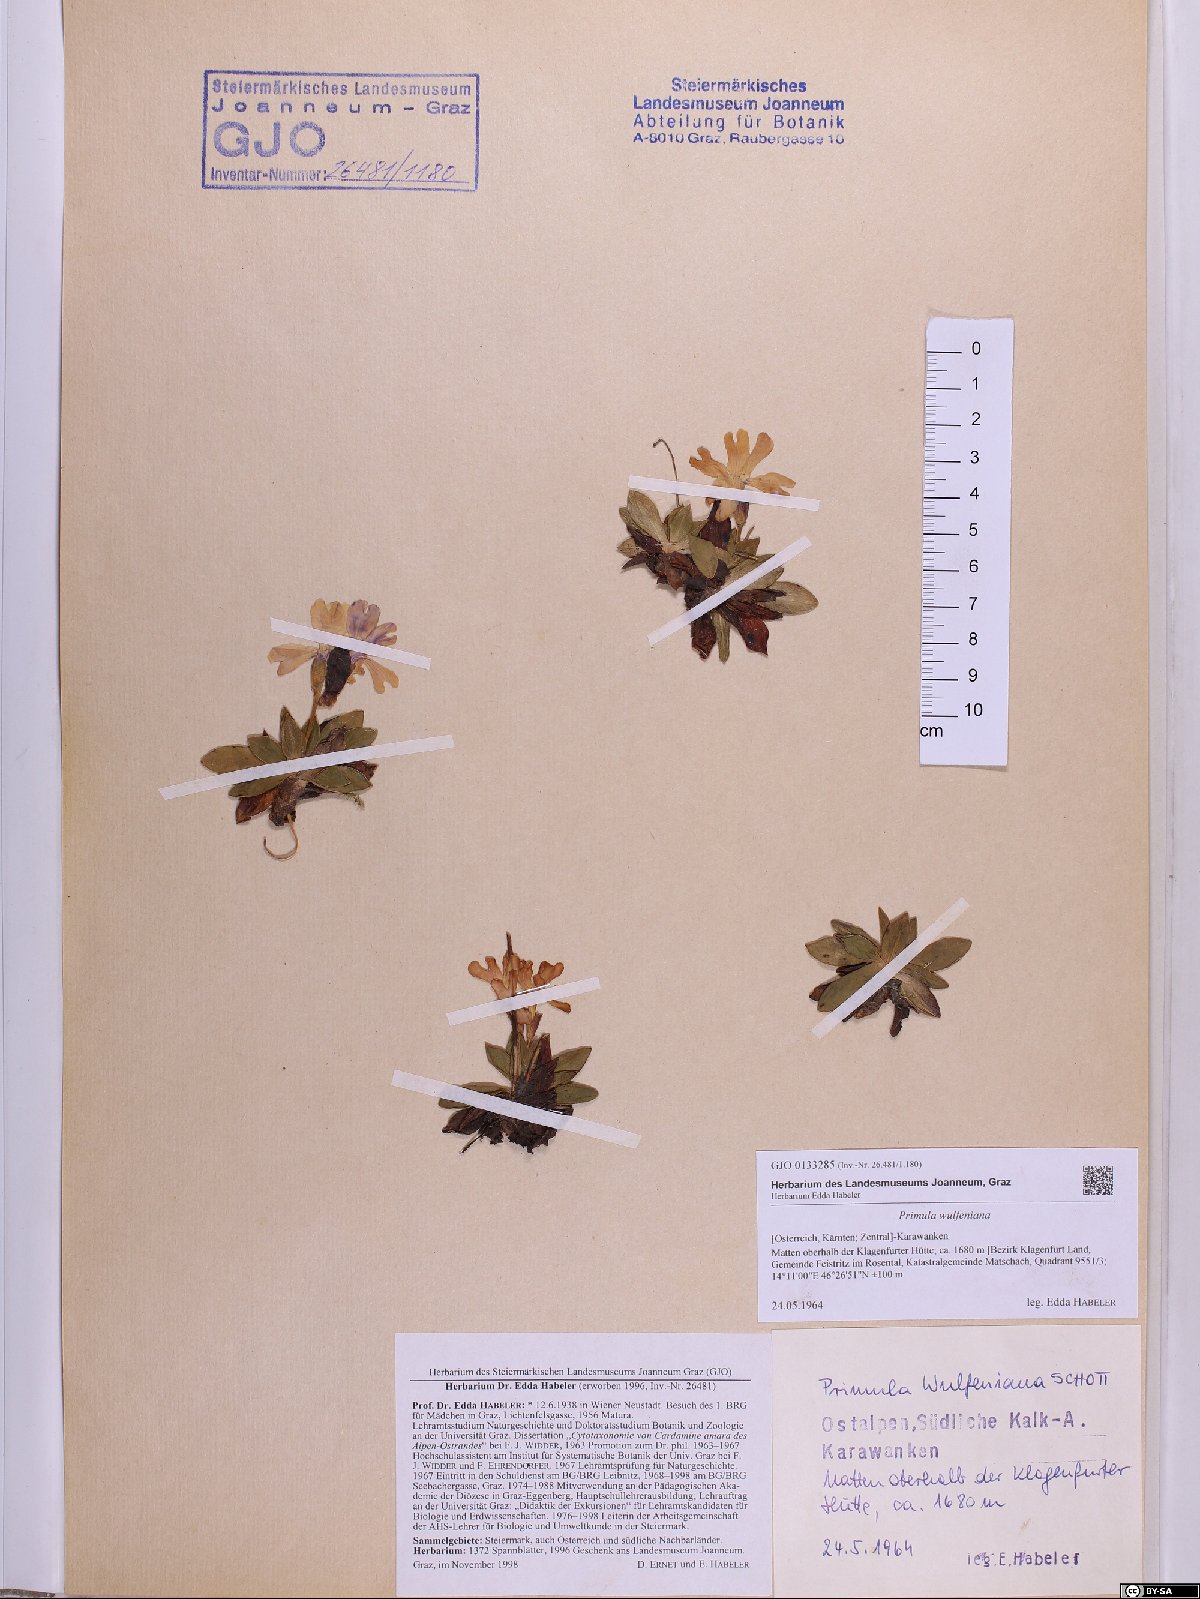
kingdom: Plantae
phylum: Tracheophyta
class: Magnoliopsida
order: Ericales
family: Primulaceae
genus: Primula
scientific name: Primula wulfeniana
